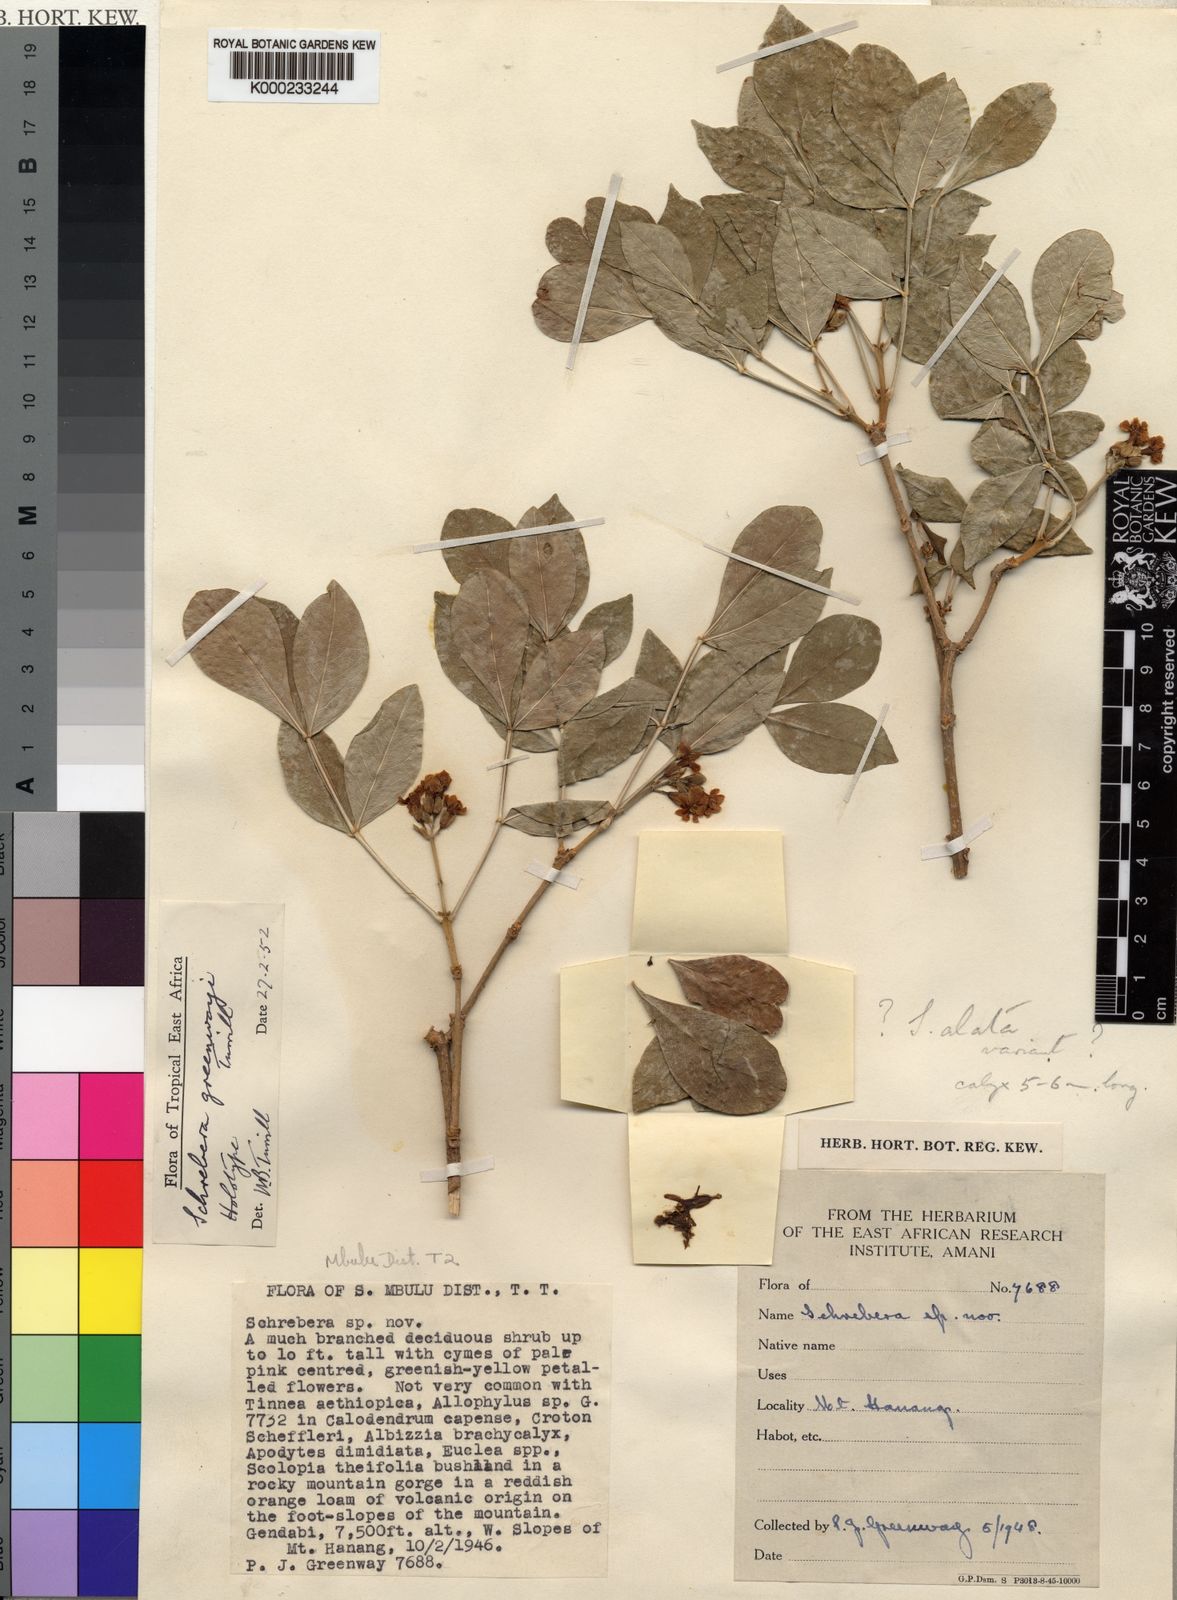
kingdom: Plantae
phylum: Tracheophyta
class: Magnoliopsida
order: Lamiales
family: Oleaceae
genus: Schrebera
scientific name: Schrebera alata
